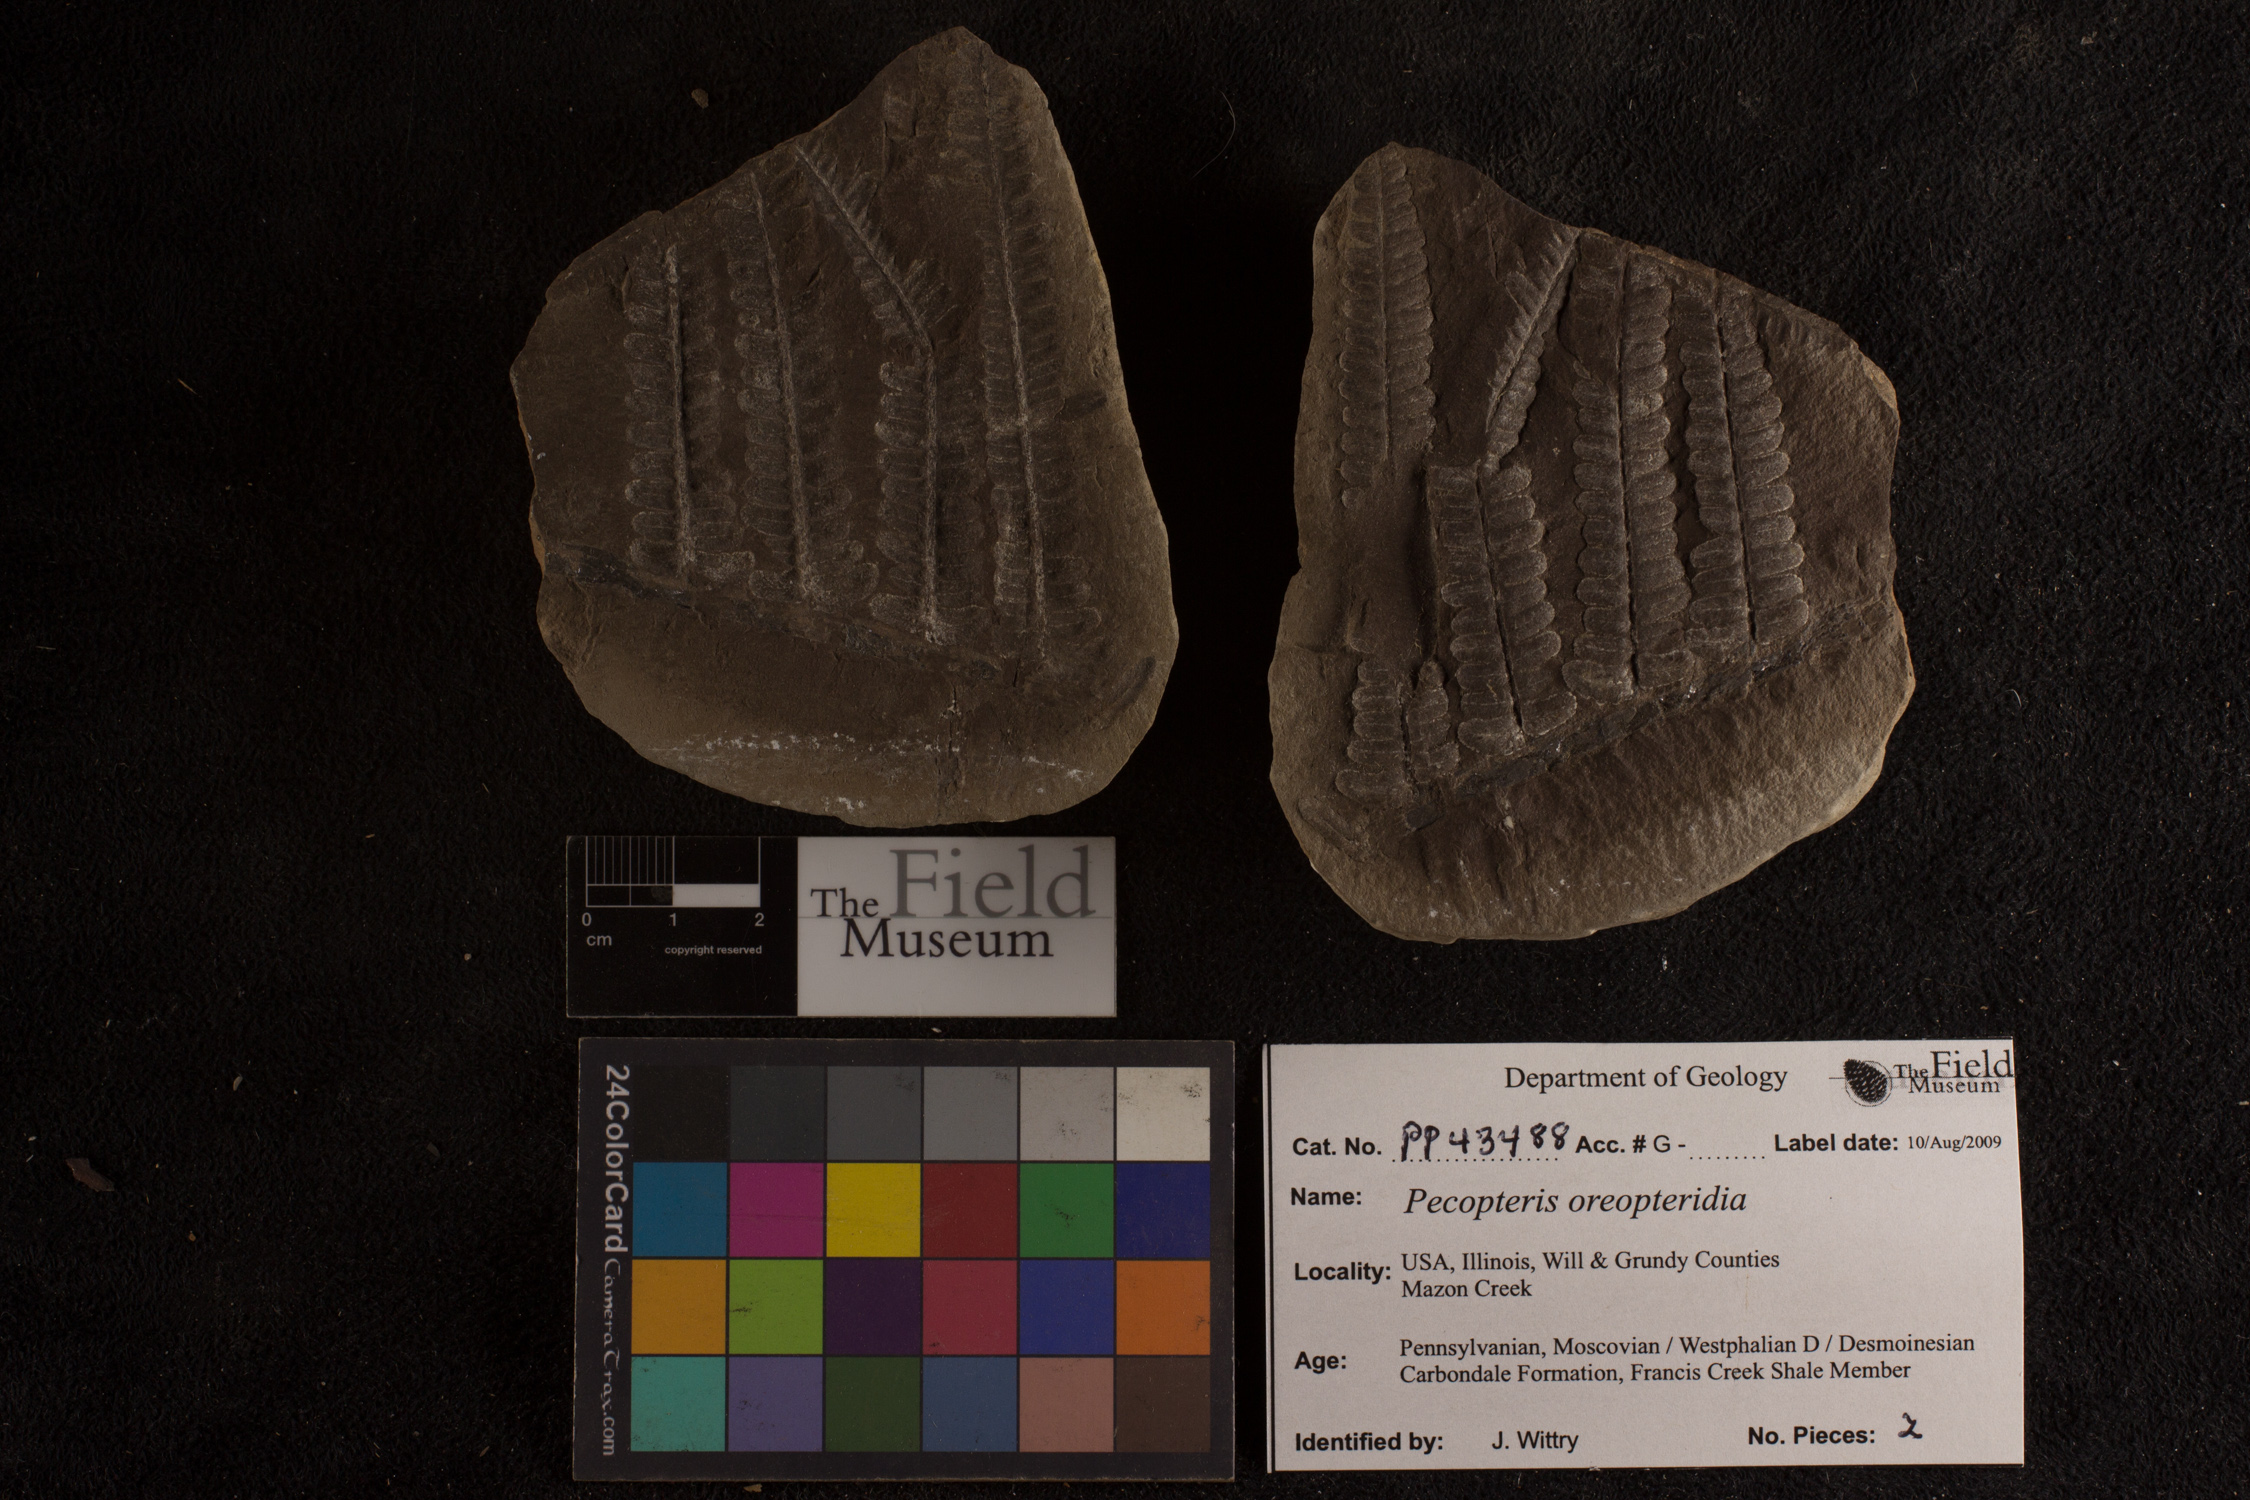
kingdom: Plantae
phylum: Tracheophyta
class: Polypodiopsida
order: Marattiales
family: Asterothecaceae
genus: Pecopteris
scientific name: Pecopteris
